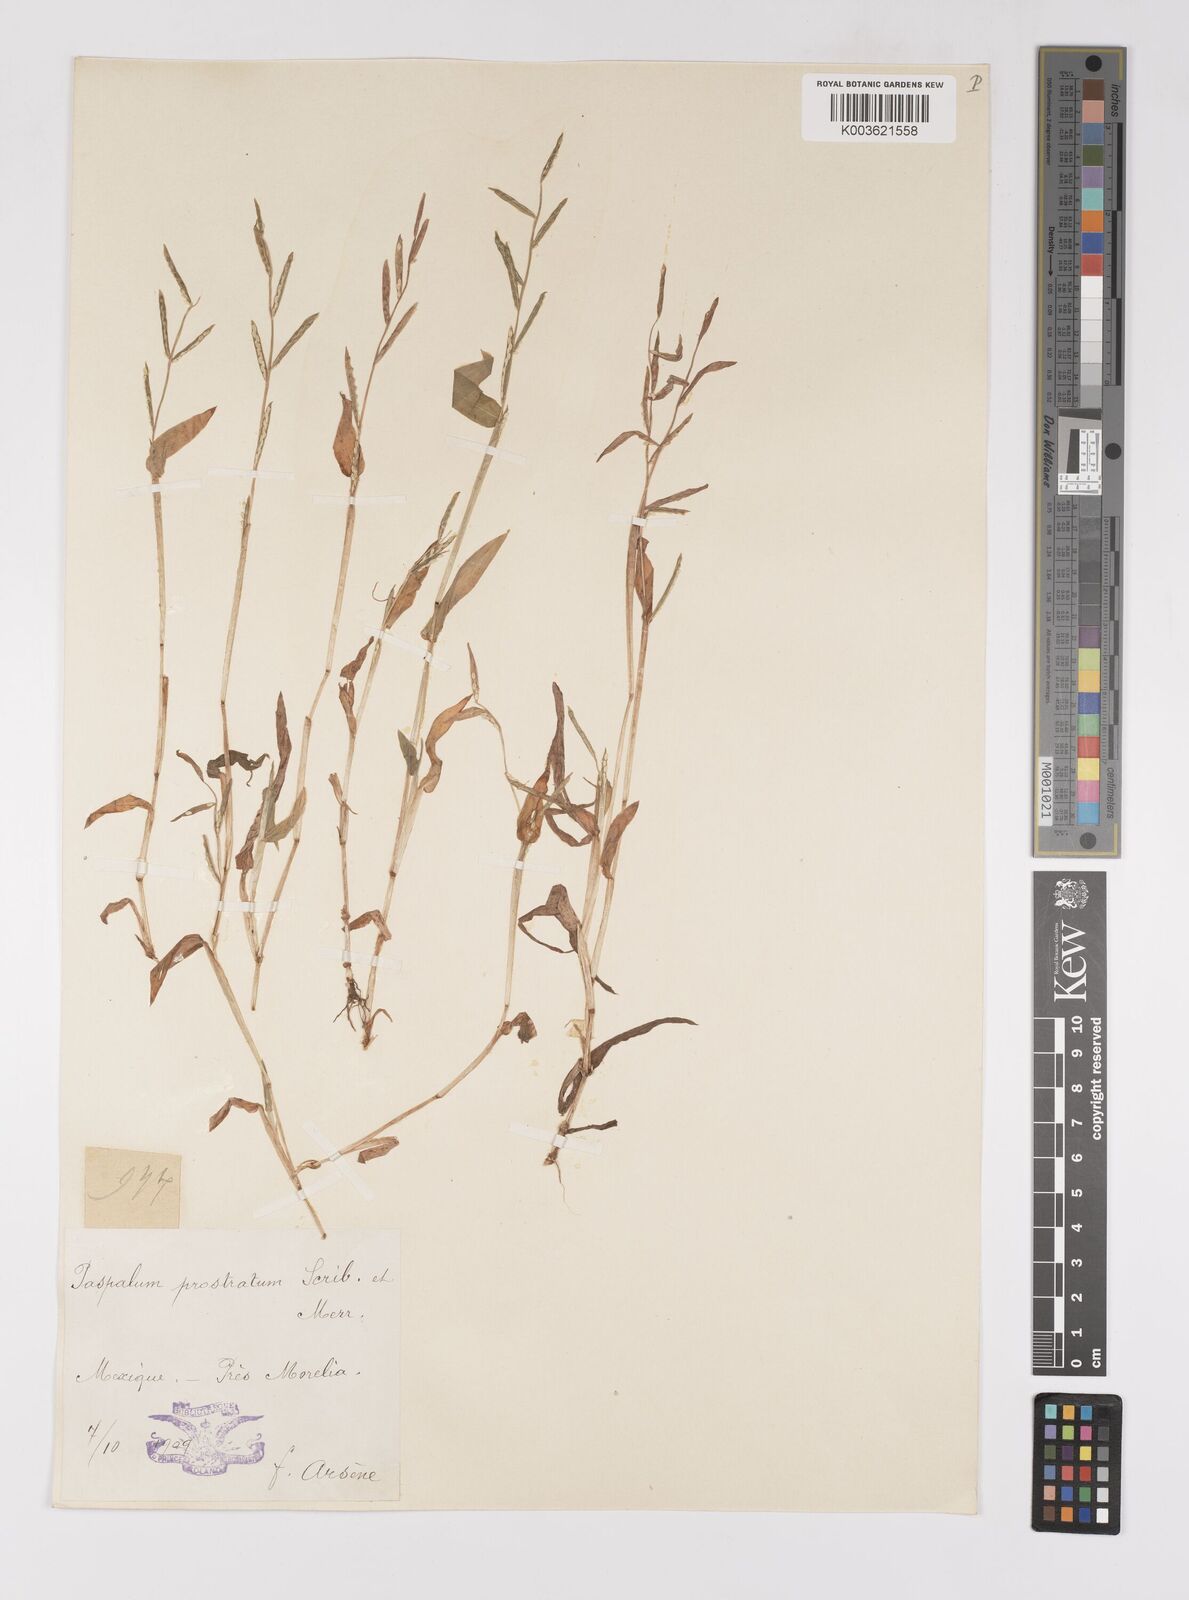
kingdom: Plantae
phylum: Tracheophyta
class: Liliopsida
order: Poales
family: Poaceae
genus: Paspalum
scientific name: Paspalum prostratum
